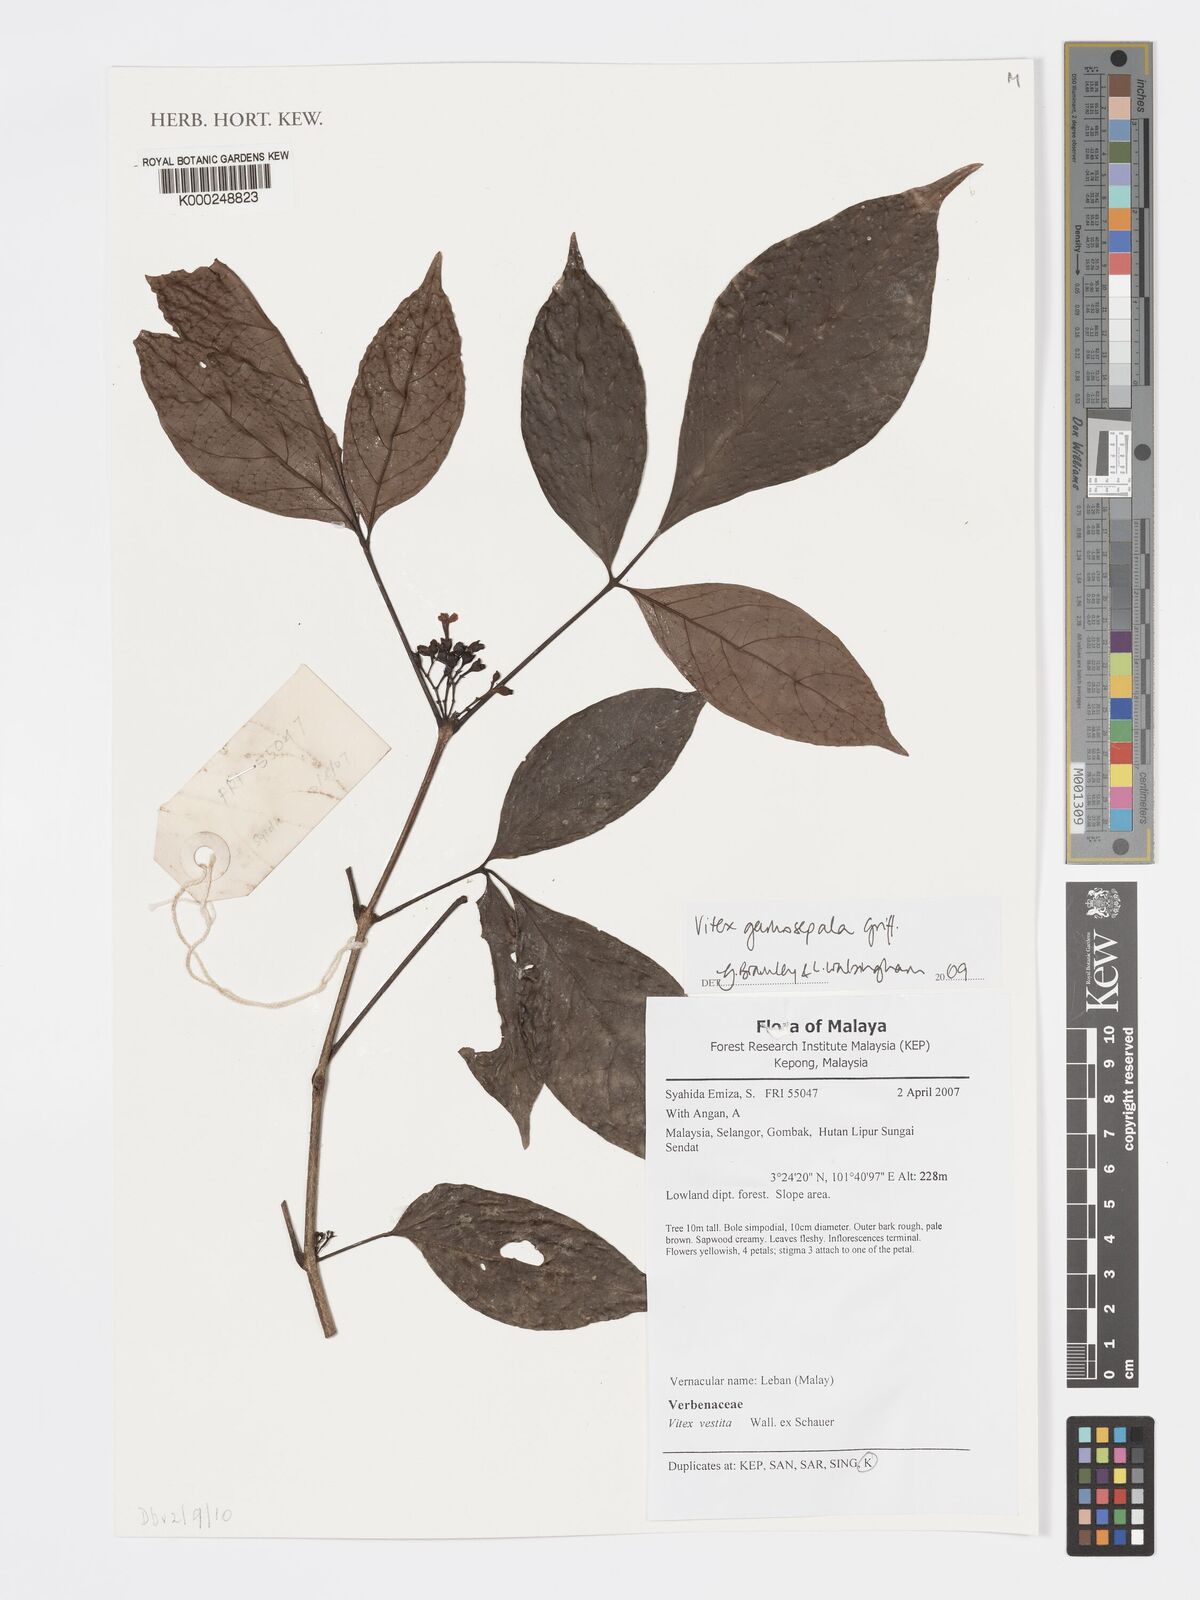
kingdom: Plantae
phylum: Tracheophyta
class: Magnoliopsida
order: Lamiales
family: Lamiaceae
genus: Vitex
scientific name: Vitex gamosepala
